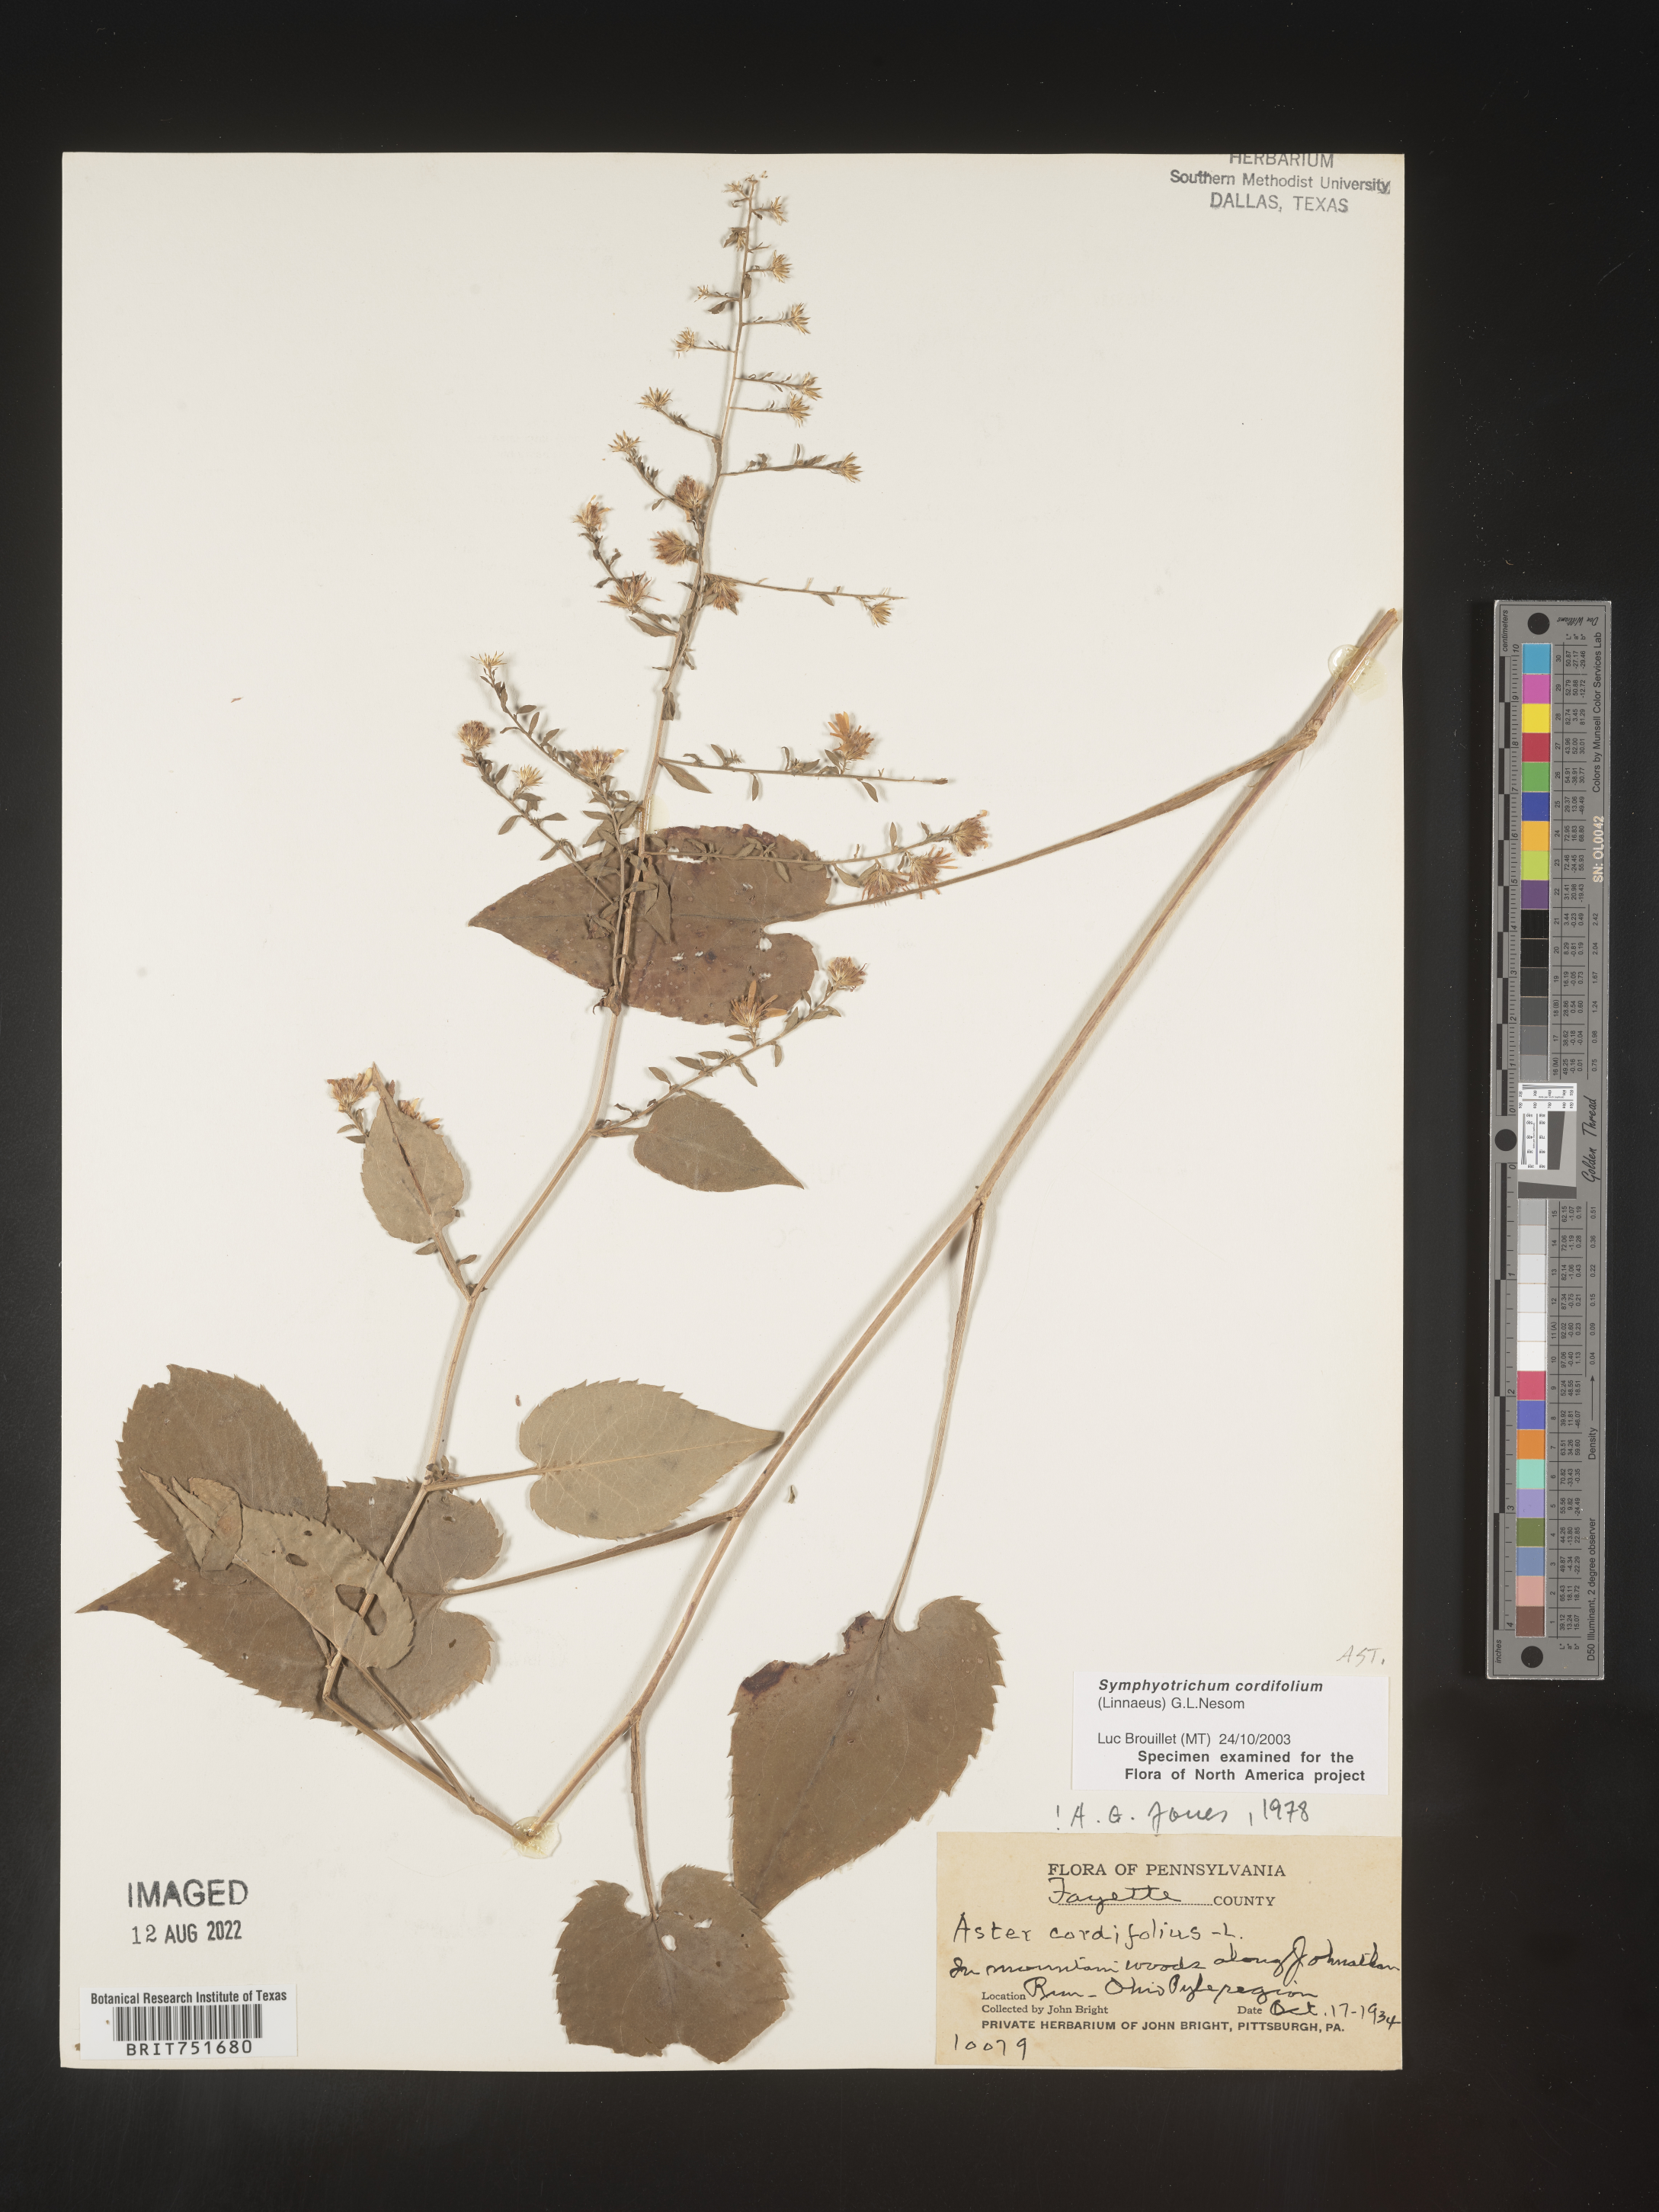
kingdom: Plantae
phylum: Tracheophyta
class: Magnoliopsida
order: Asterales
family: Asteraceae
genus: Symphyotrichum
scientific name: Symphyotrichum cordifolium
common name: Beeweed
